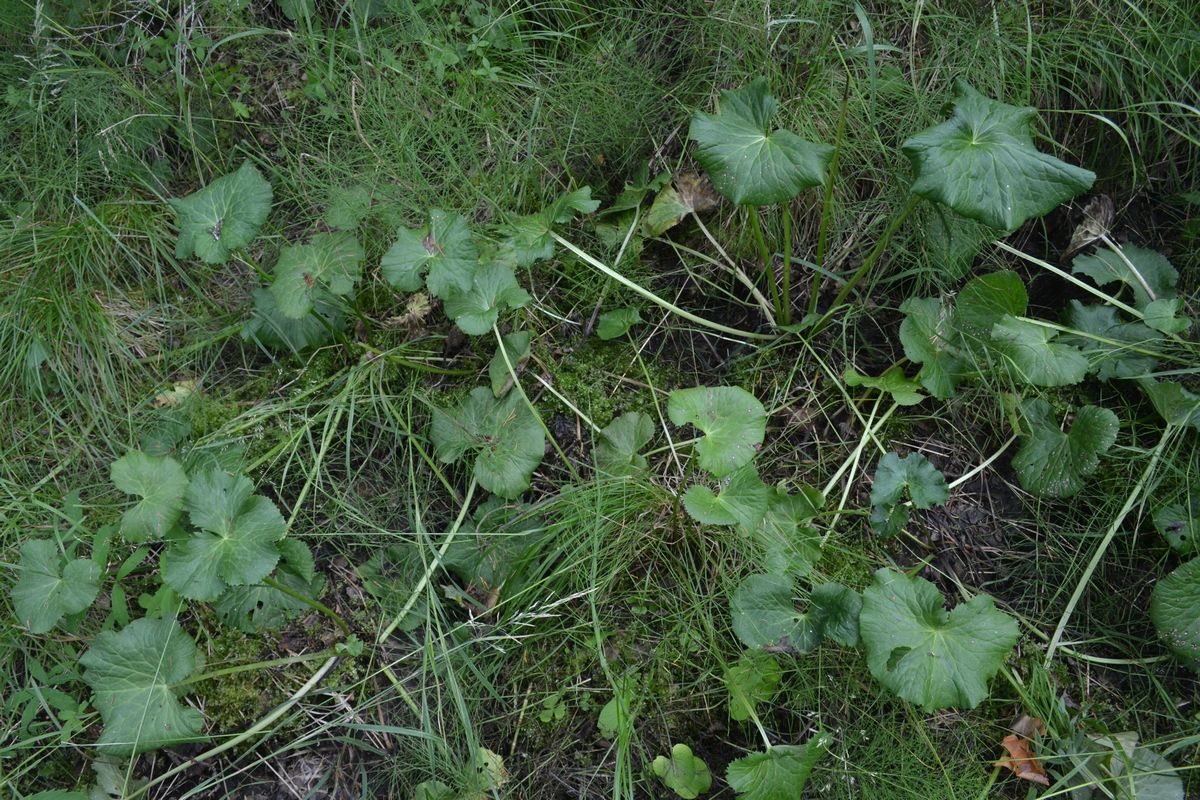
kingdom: Plantae
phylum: Tracheophyta
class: Magnoliopsida
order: Ranunculales
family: Ranunculaceae
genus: Caltha
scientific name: Caltha palustris
